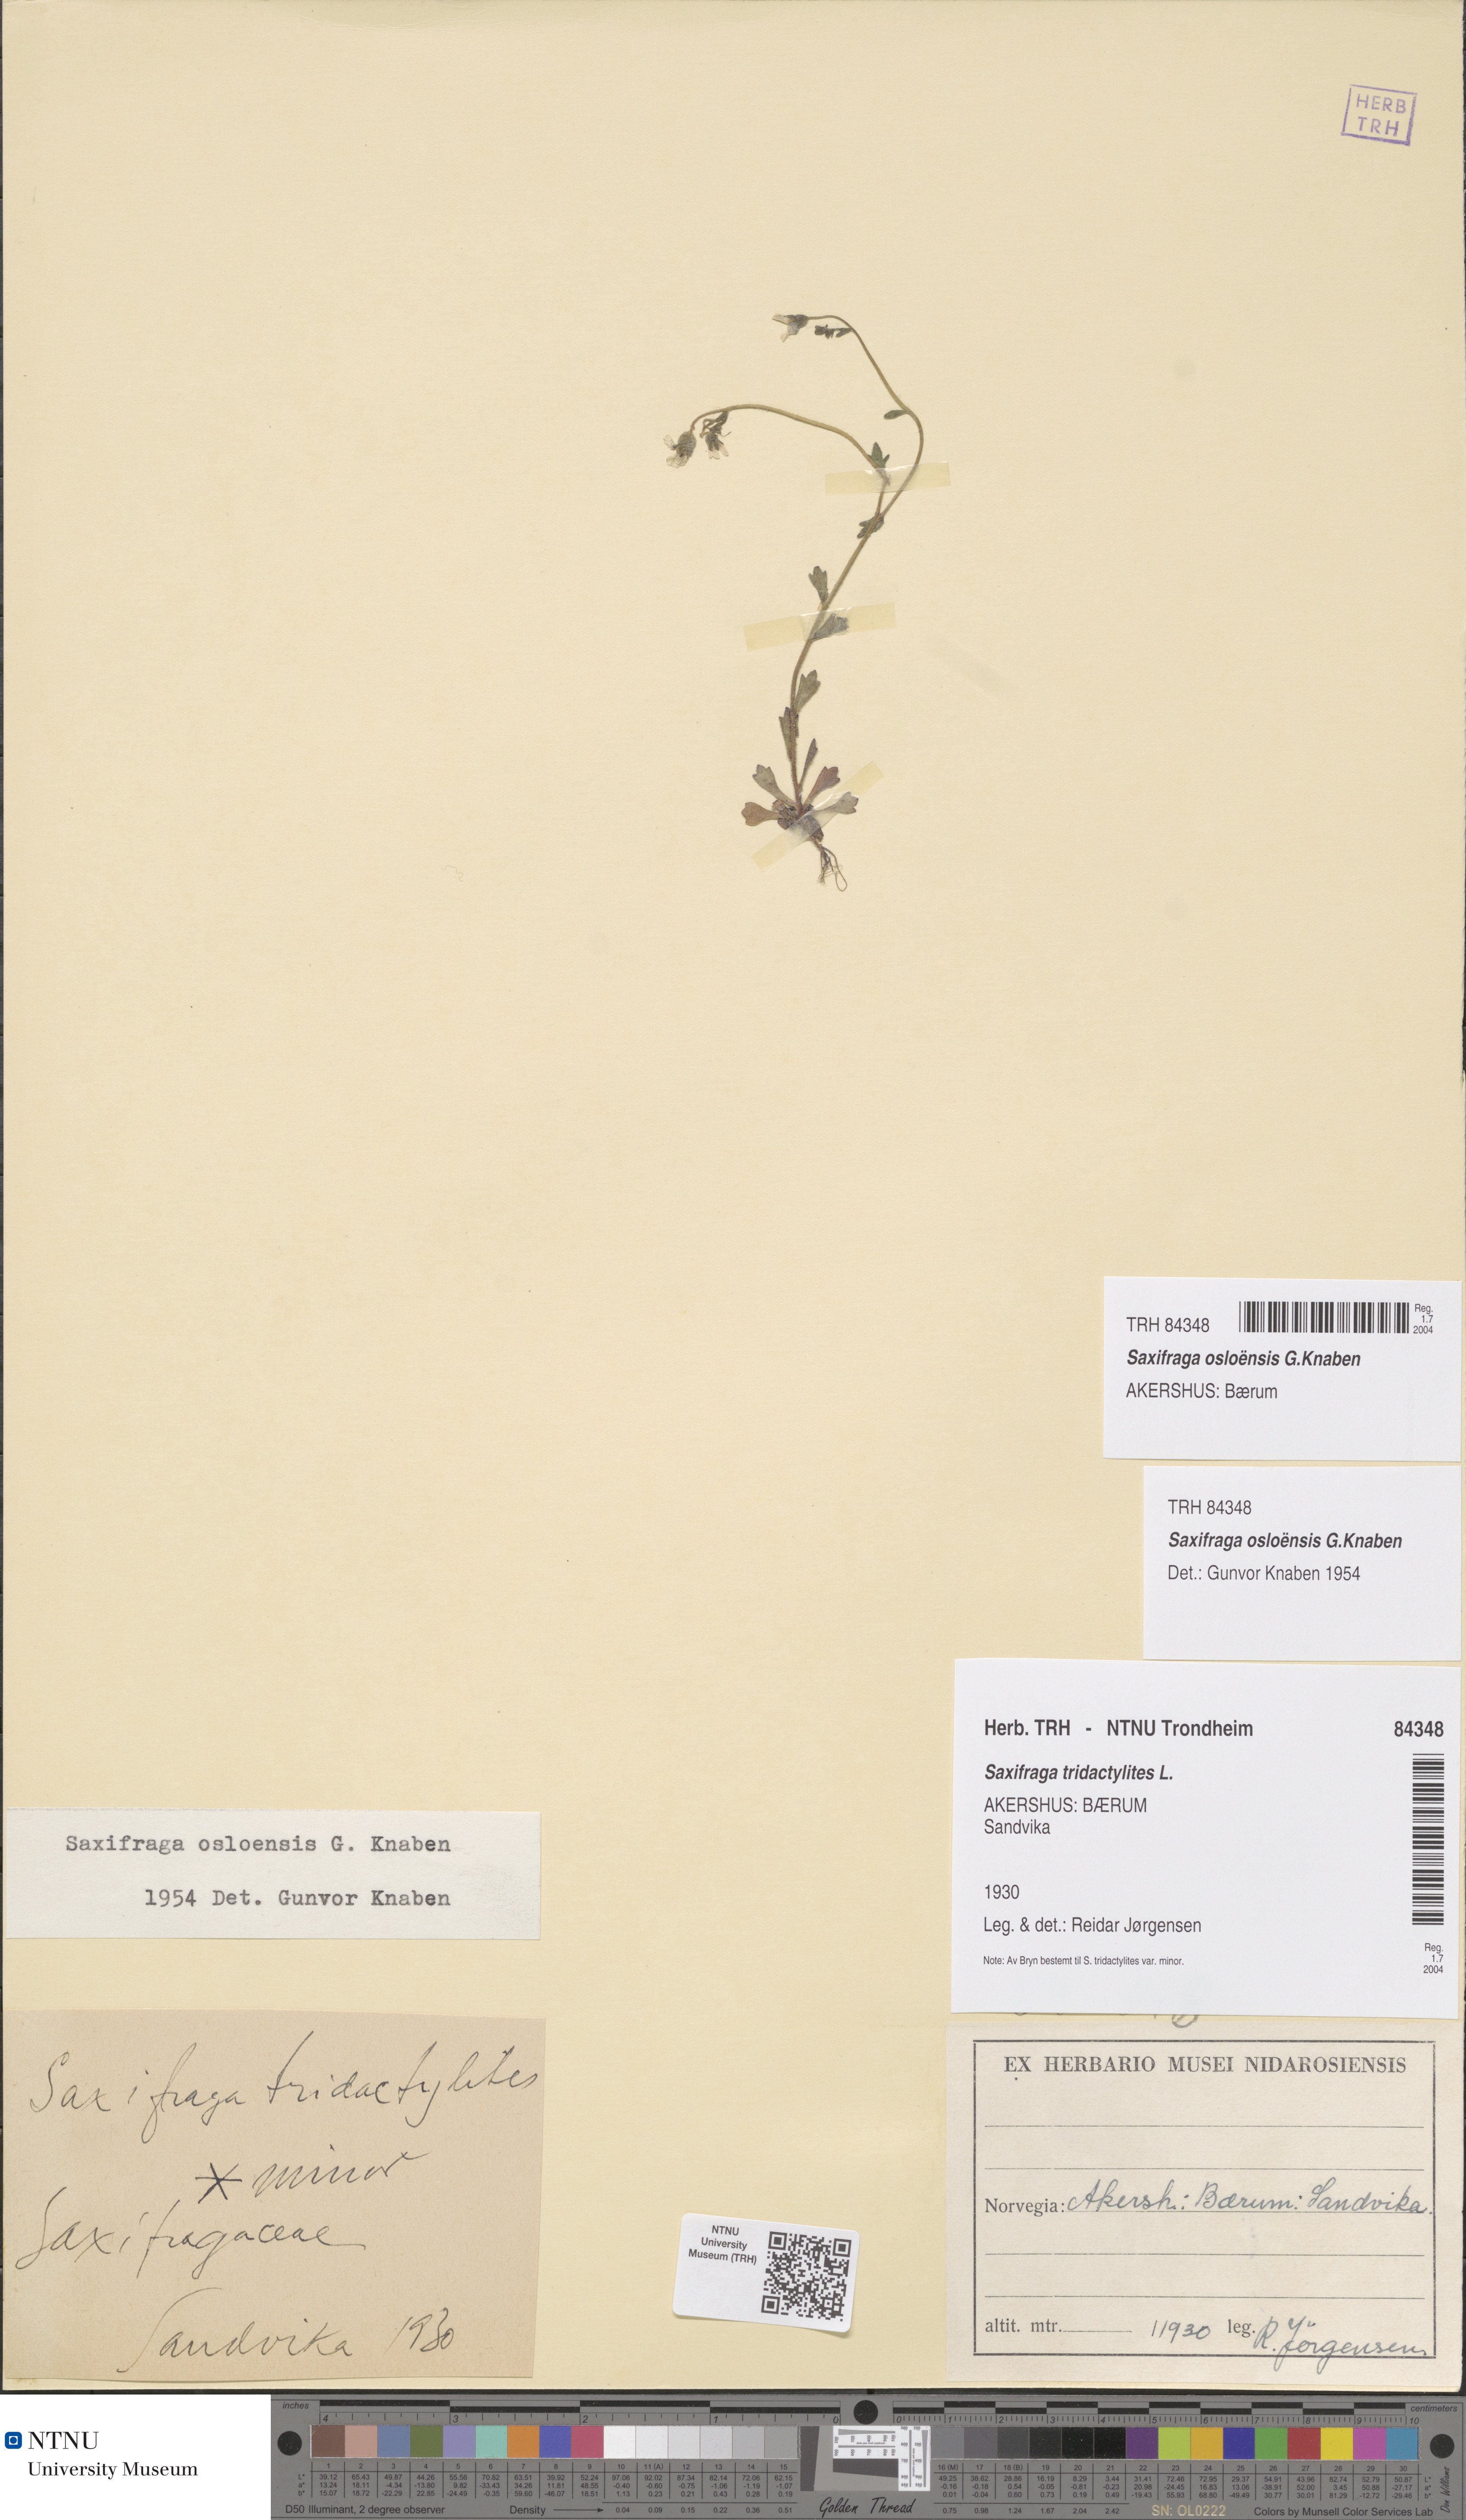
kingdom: Plantae
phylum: Tracheophyta
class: Magnoliopsida
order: Saxifragales
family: Saxifragaceae
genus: Saxifraga
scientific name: Saxifraga osloensis
